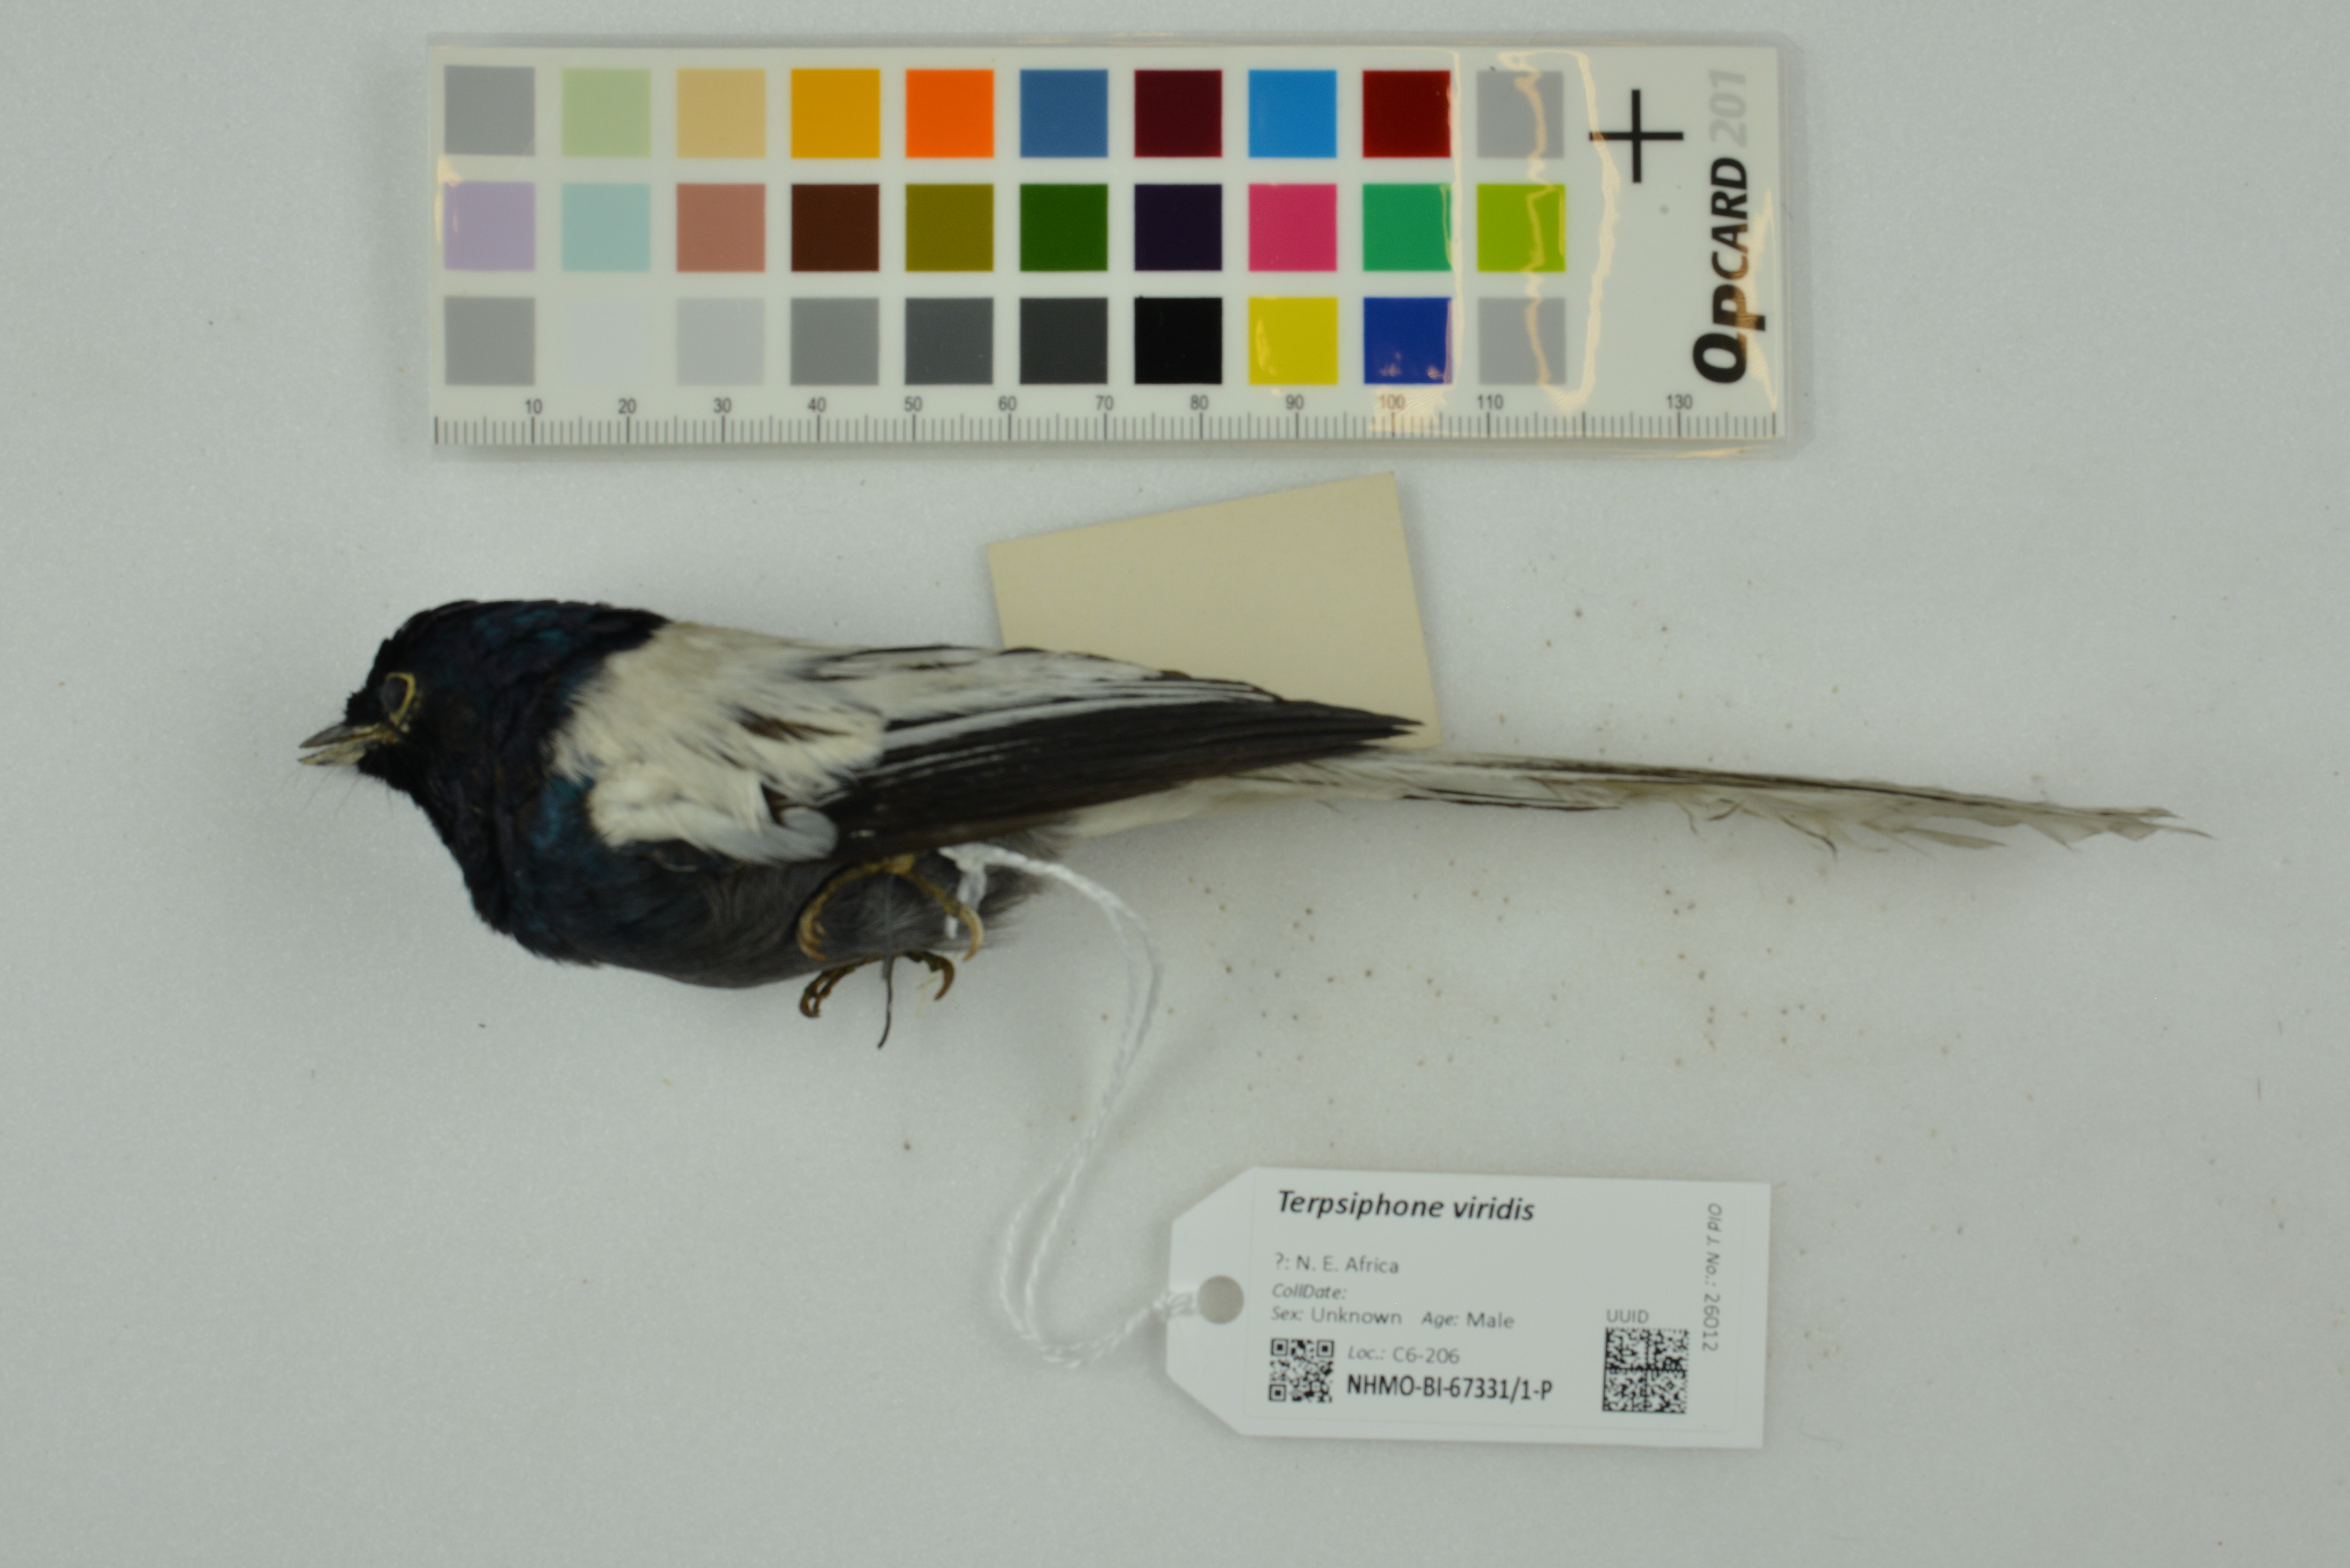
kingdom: Animalia
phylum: Chordata
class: Aves
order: Passeriformes
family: Monarchidae
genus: Terpsiphone
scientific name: Terpsiphone viridis
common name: African paradise flycatcher
